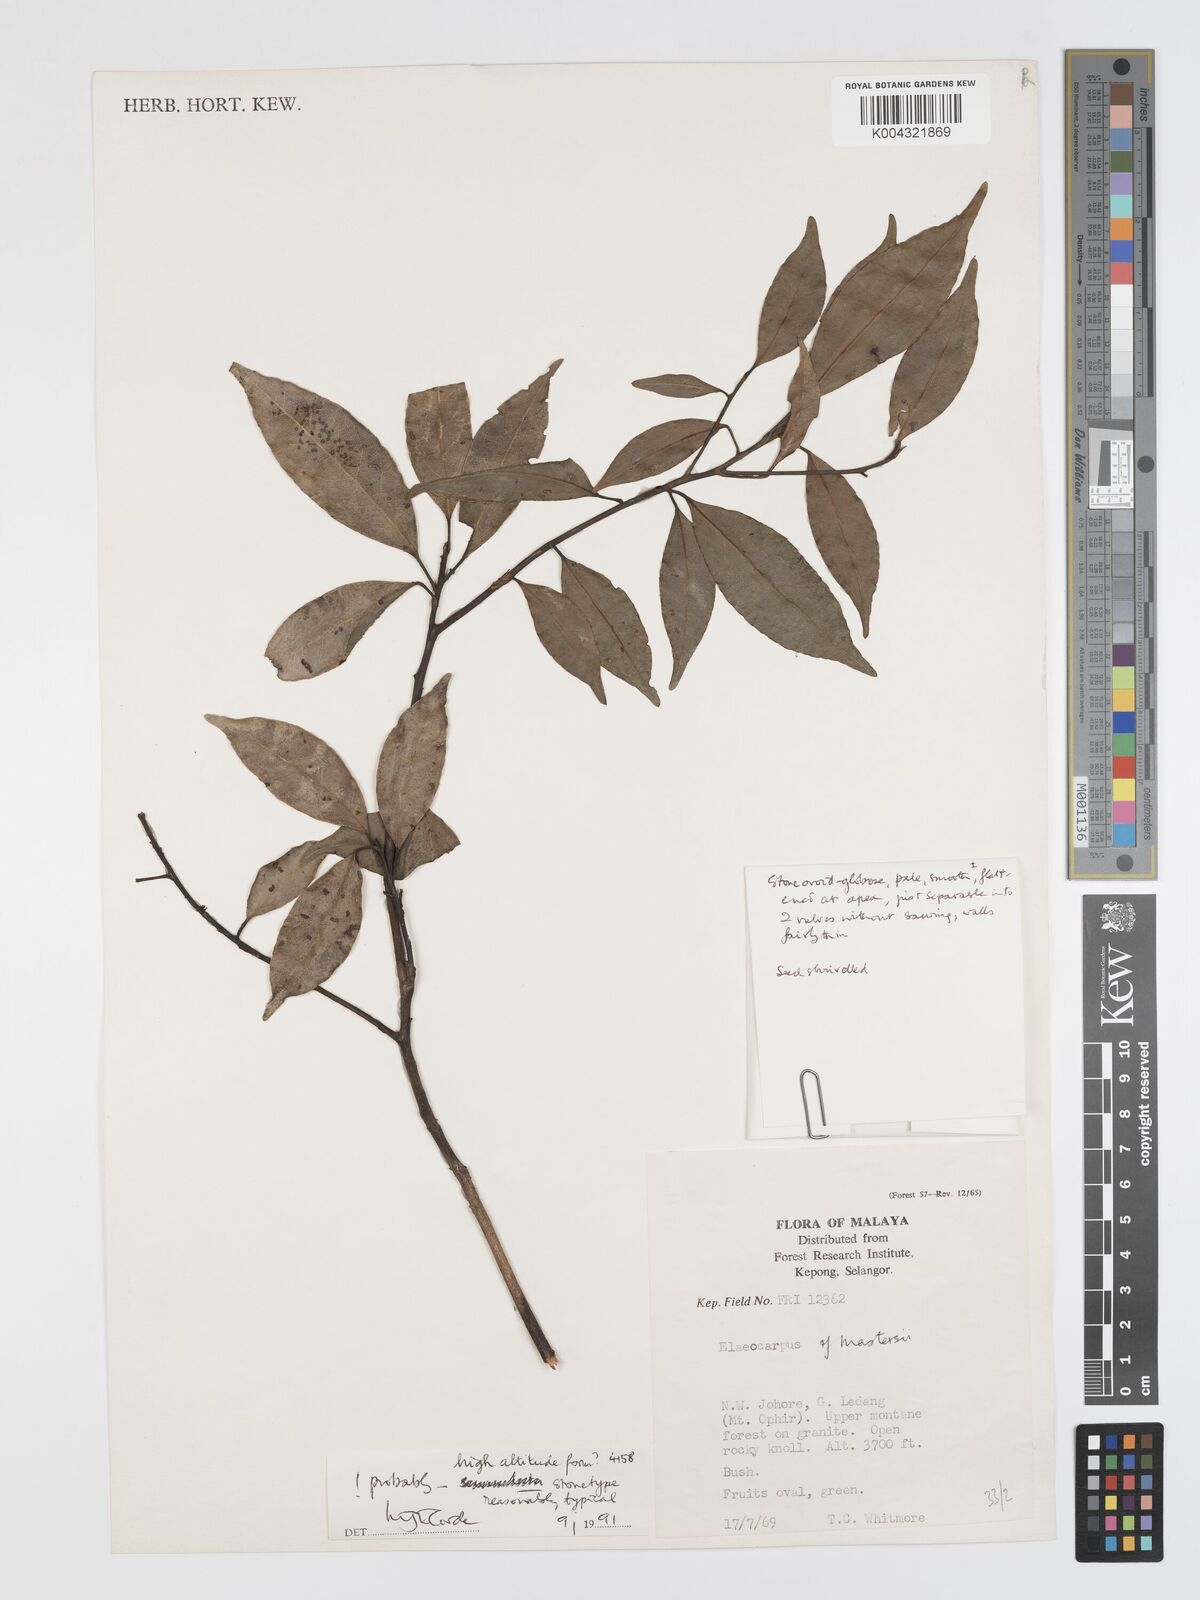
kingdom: Plantae
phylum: Tracheophyta
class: Magnoliopsida
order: Oxalidales
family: Elaeocarpaceae
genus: Elaeocarpus
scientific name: Elaeocarpus mastersii
